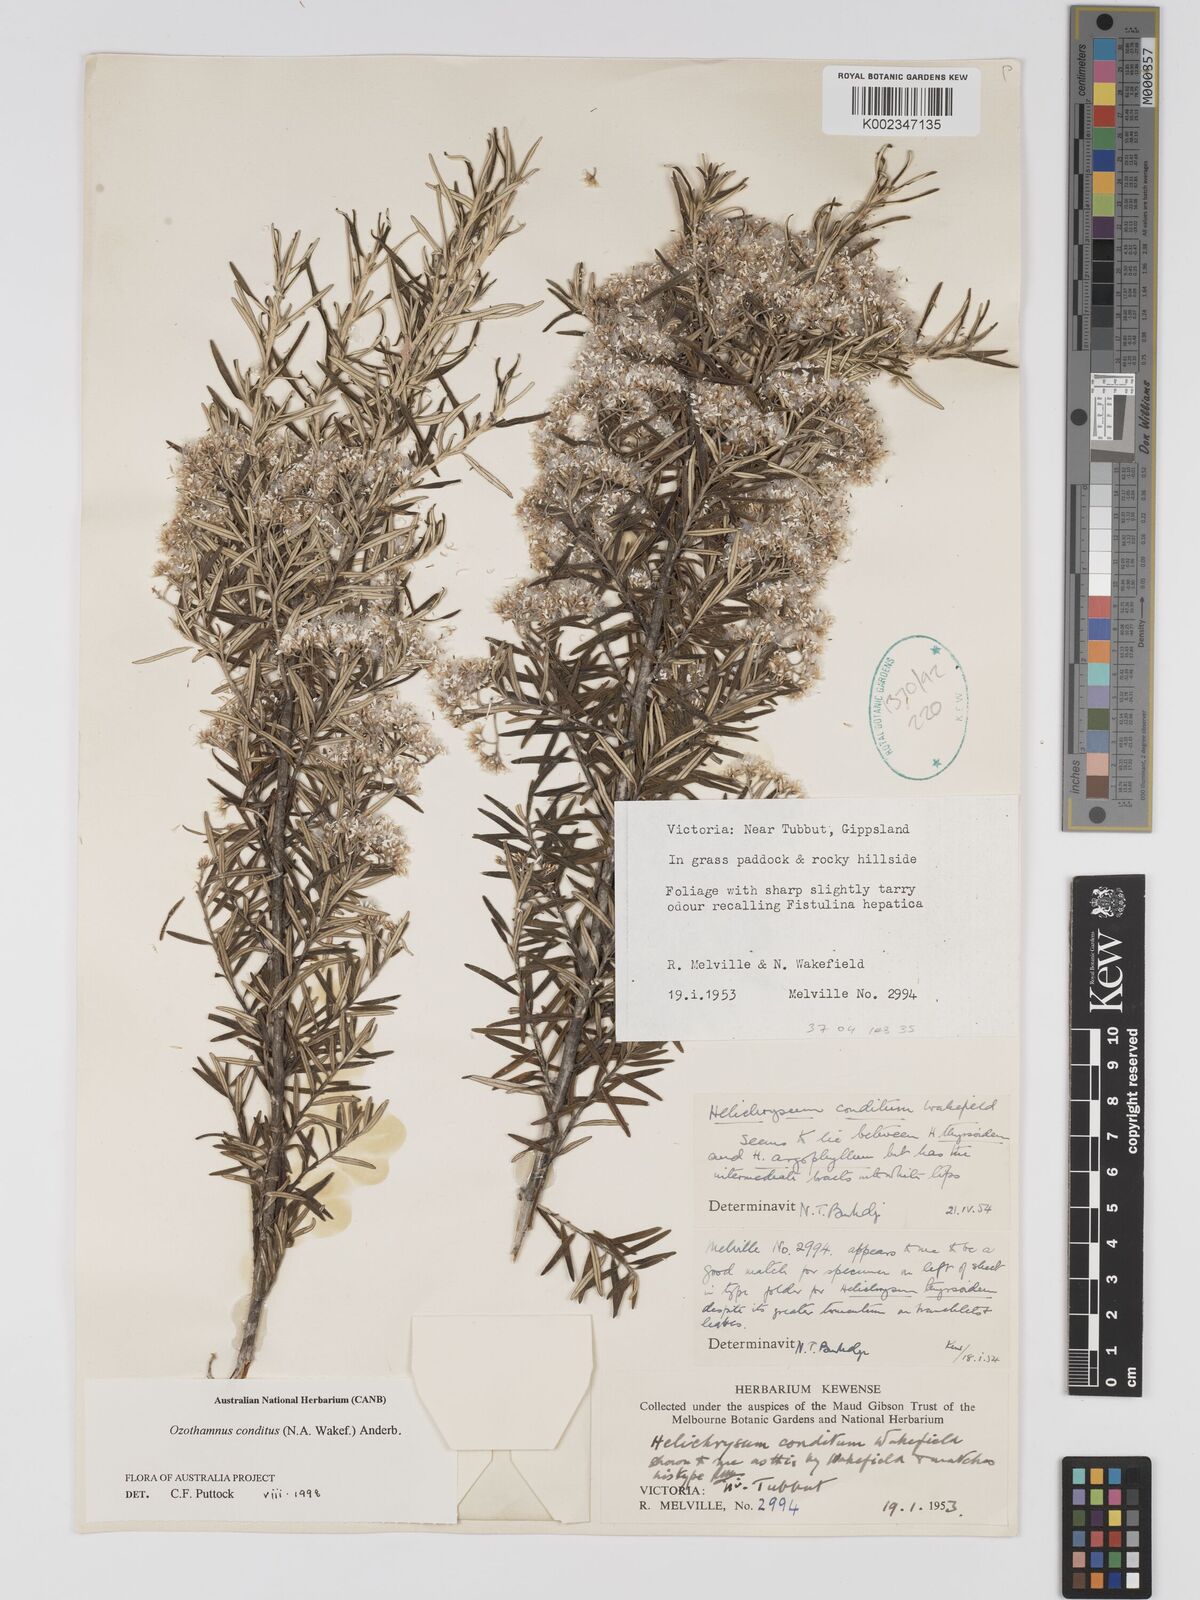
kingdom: Plantae
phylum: Tracheophyta
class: Magnoliopsida
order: Asterales
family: Asteraceae
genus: Ozothamnus
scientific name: Ozothamnus conditus
